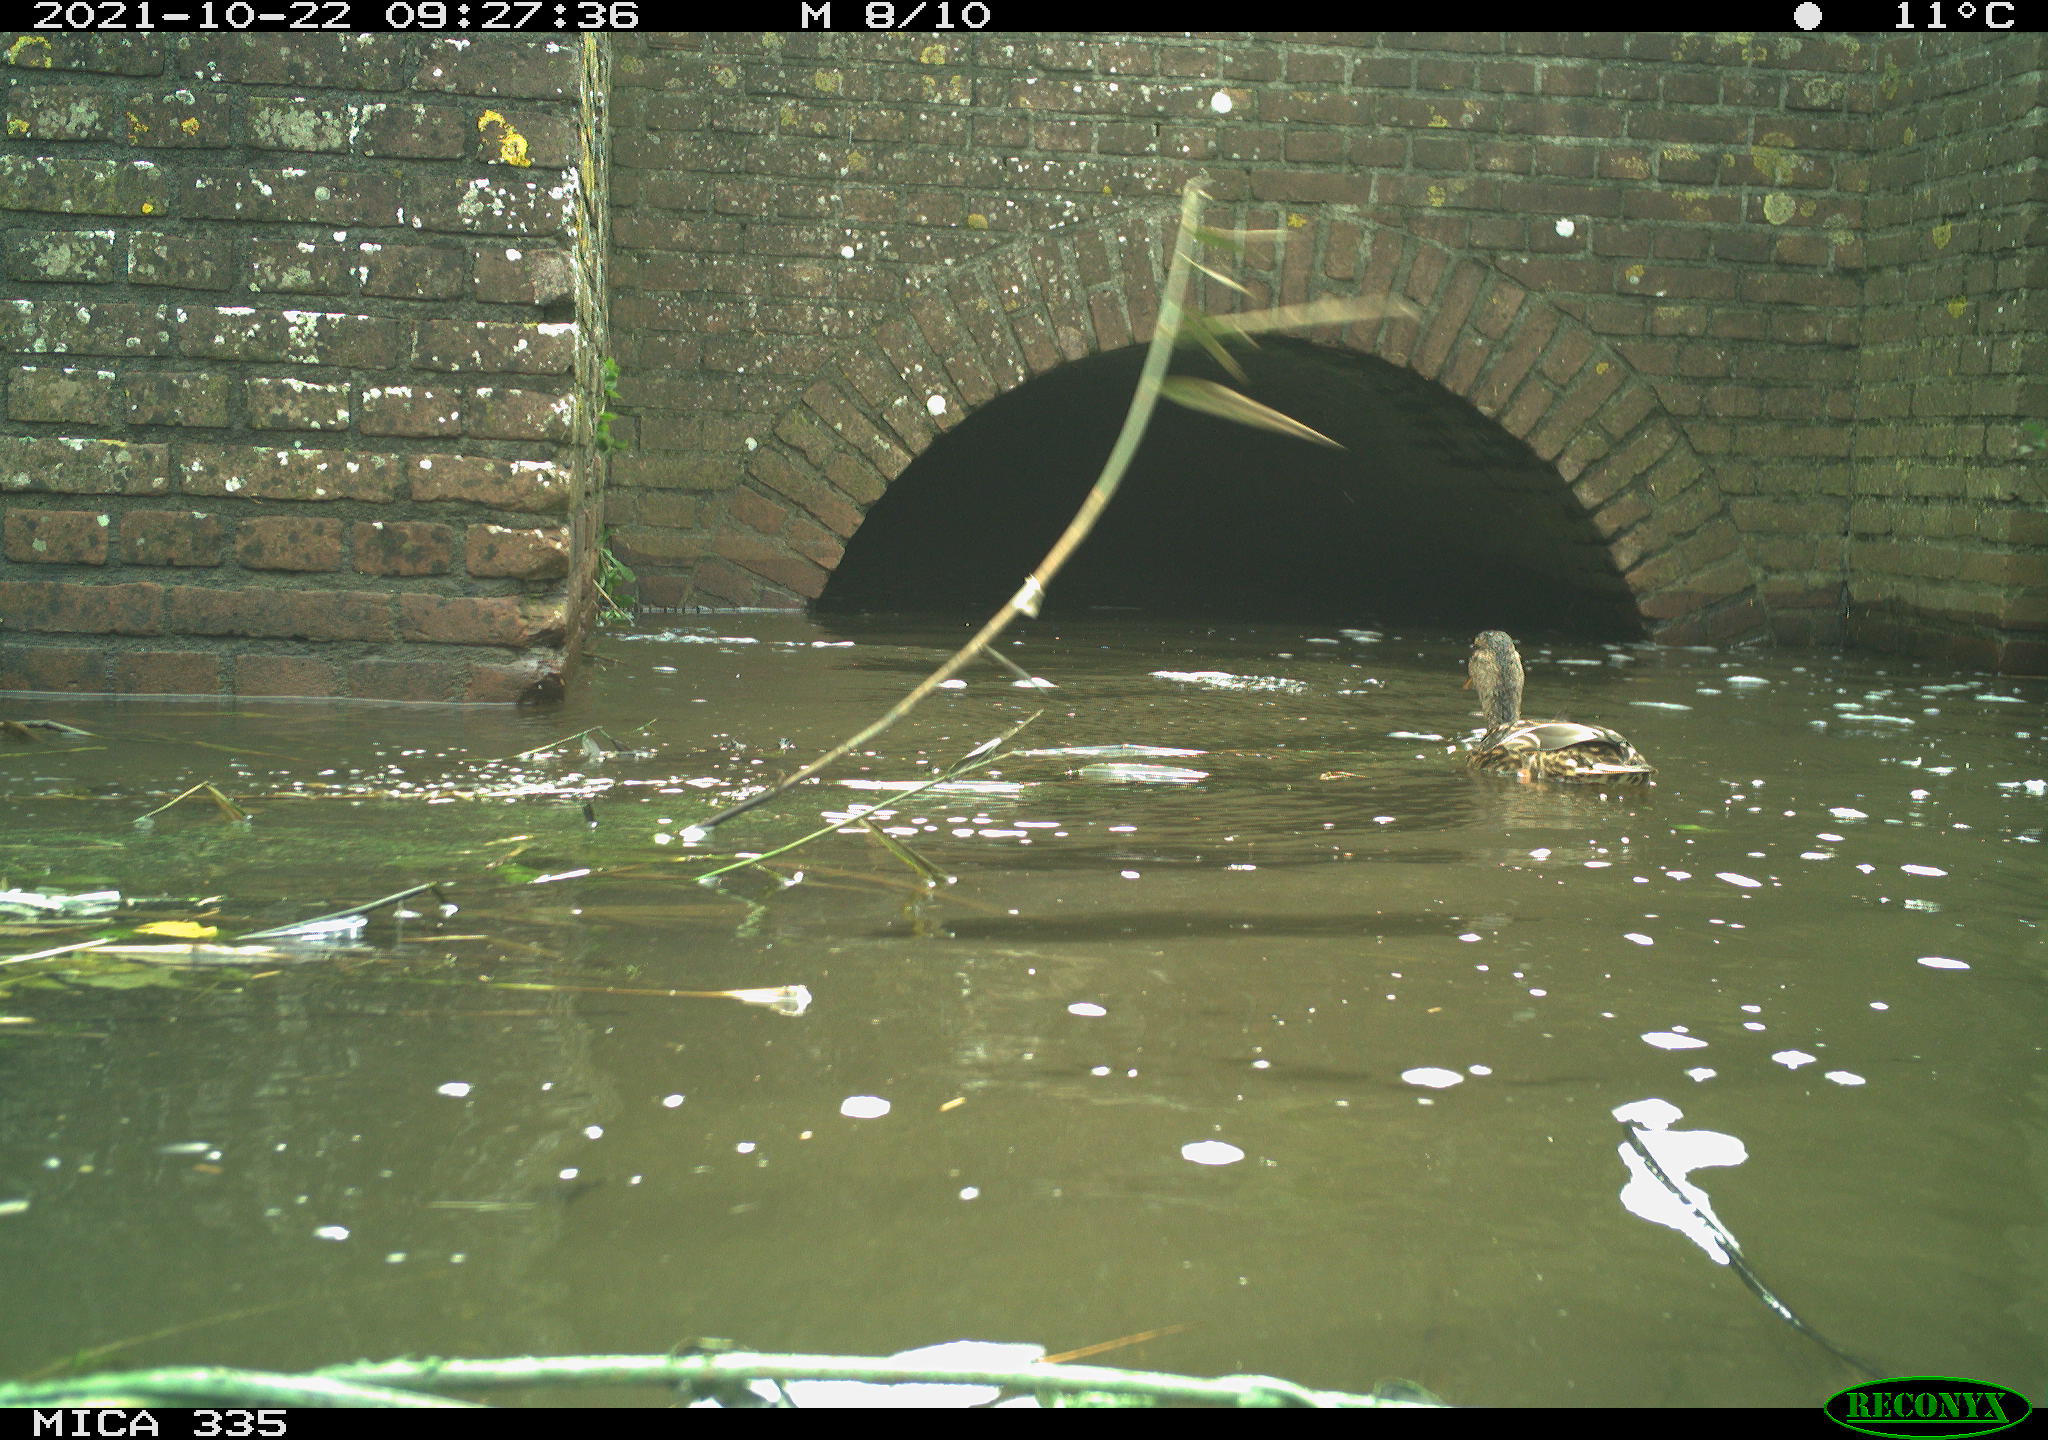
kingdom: Animalia
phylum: Chordata
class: Aves
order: Anseriformes
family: Anatidae
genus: Anas
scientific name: Anas platyrhynchos
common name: Mallard
